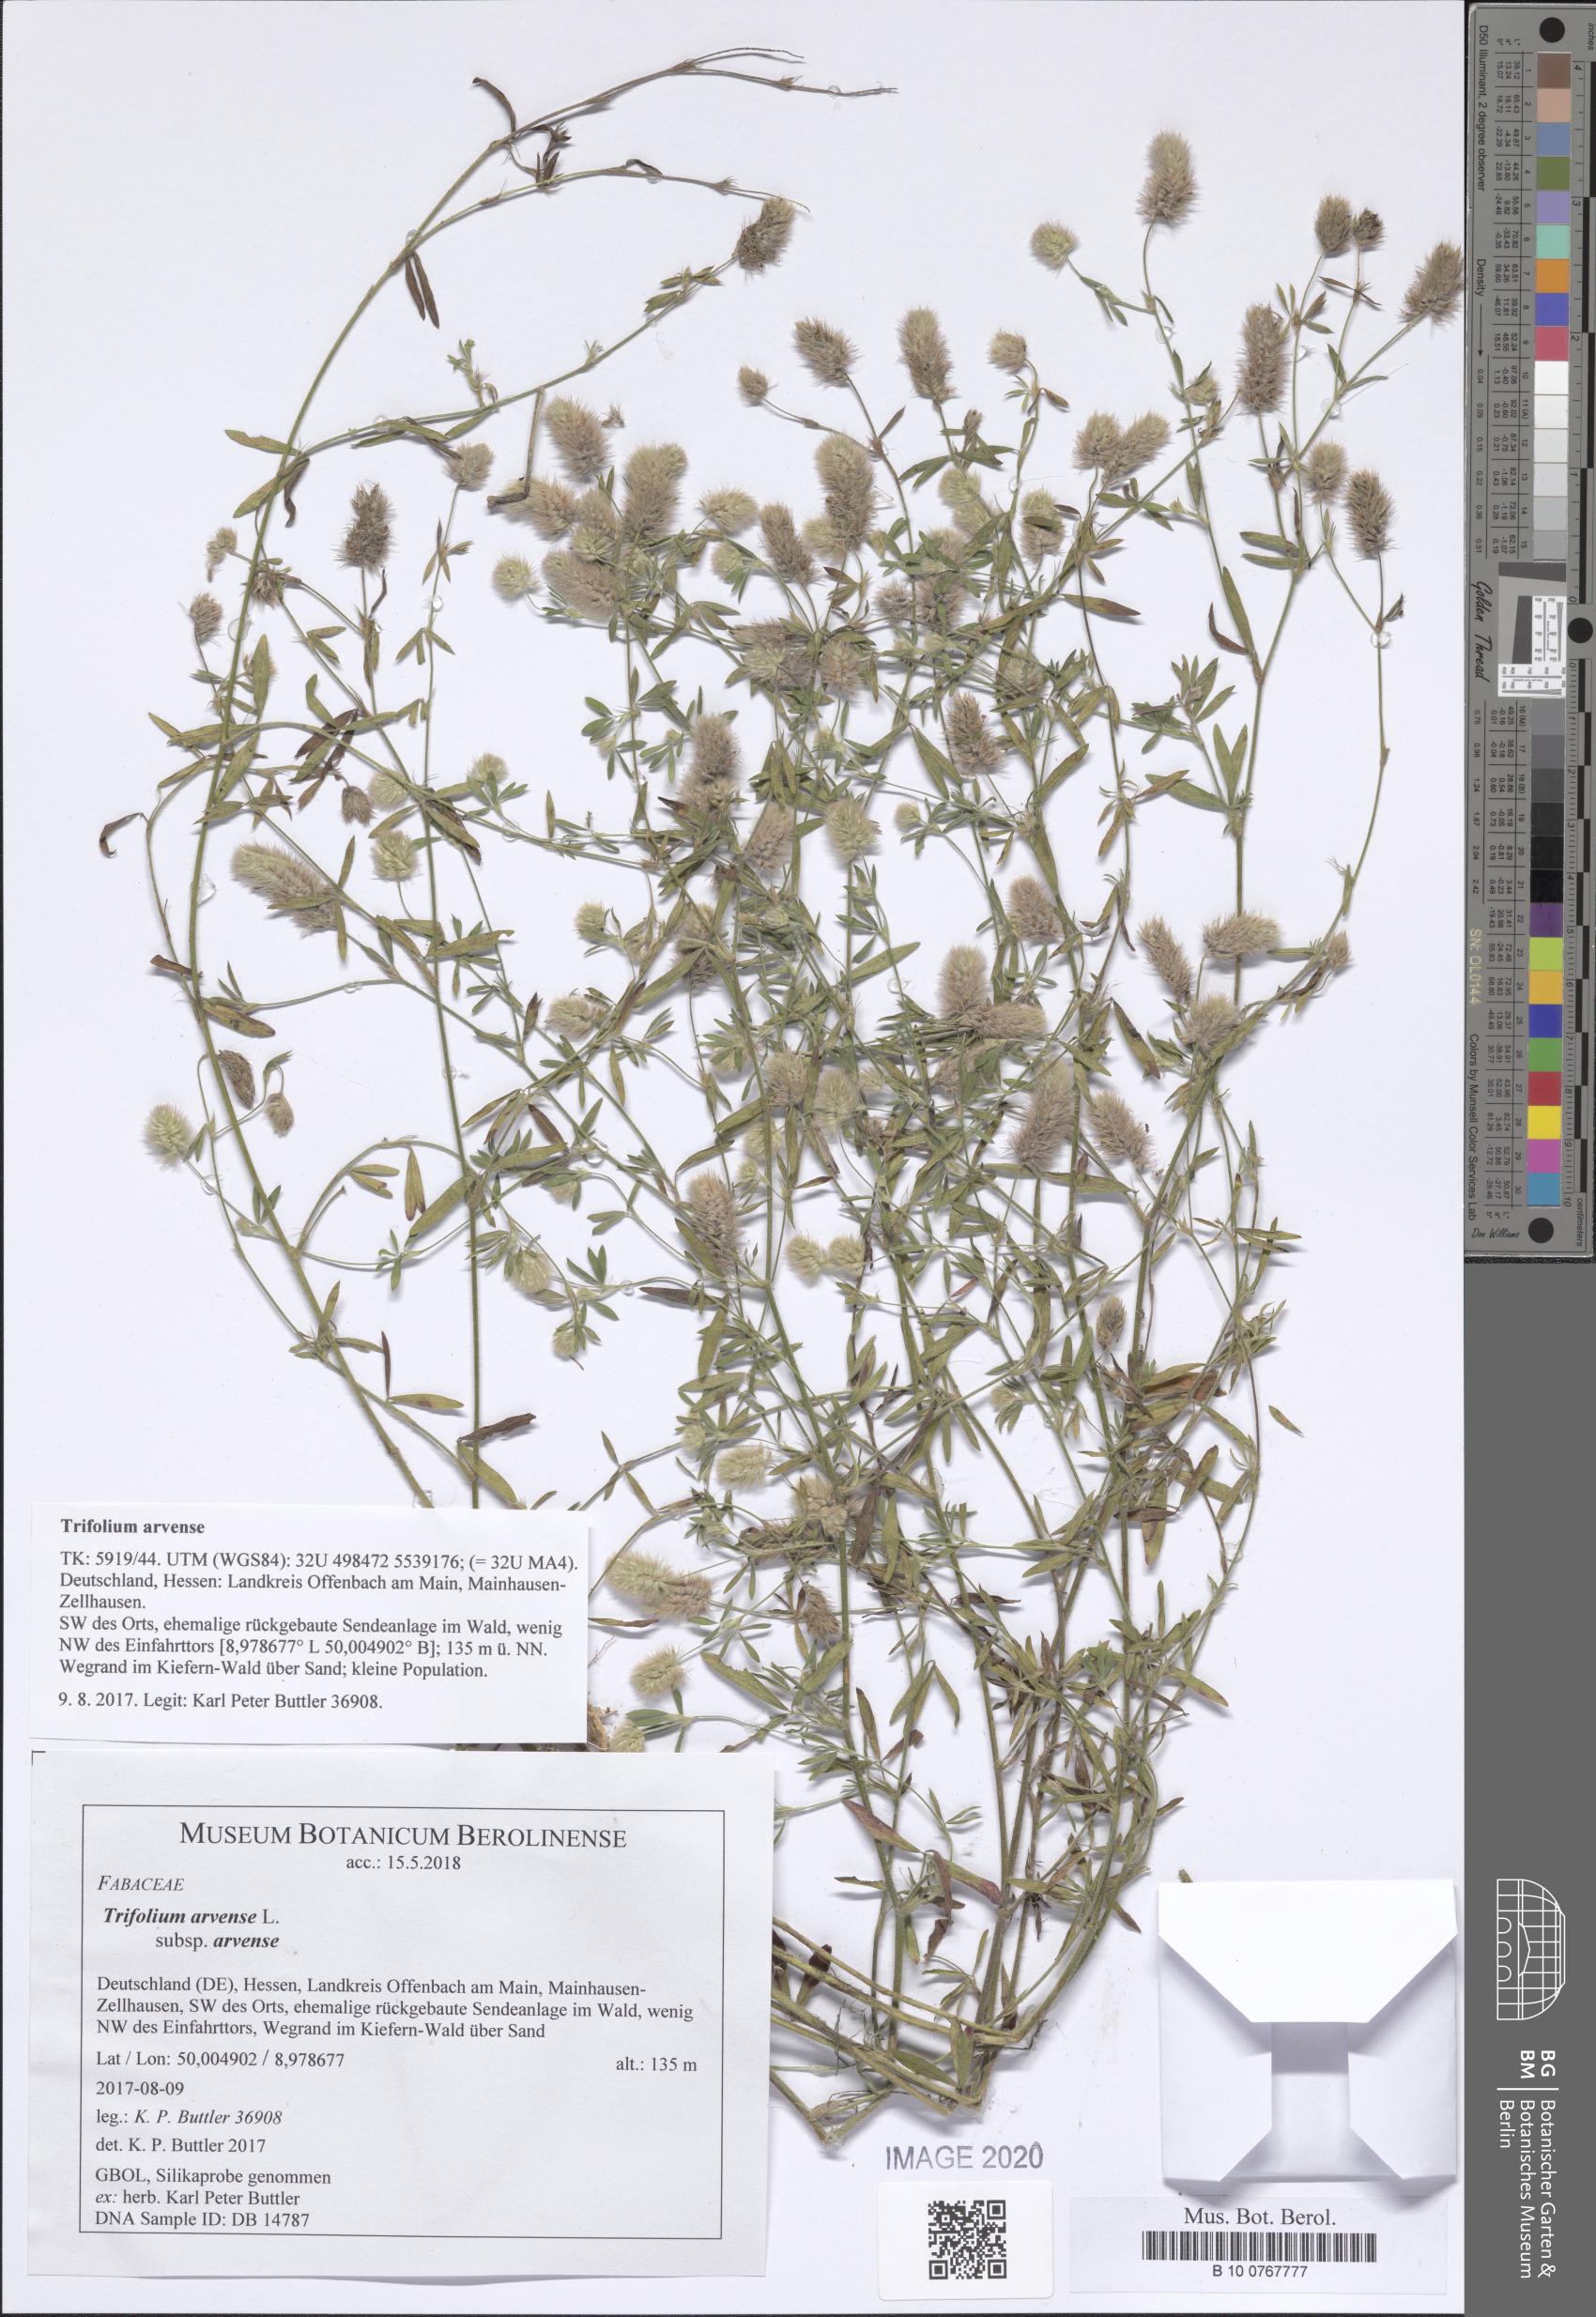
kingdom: Plantae
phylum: Tracheophyta
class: Magnoliopsida
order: Fabales
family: Fabaceae
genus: Trifolium
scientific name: Trifolium arvense
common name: Hare's-foot clover
